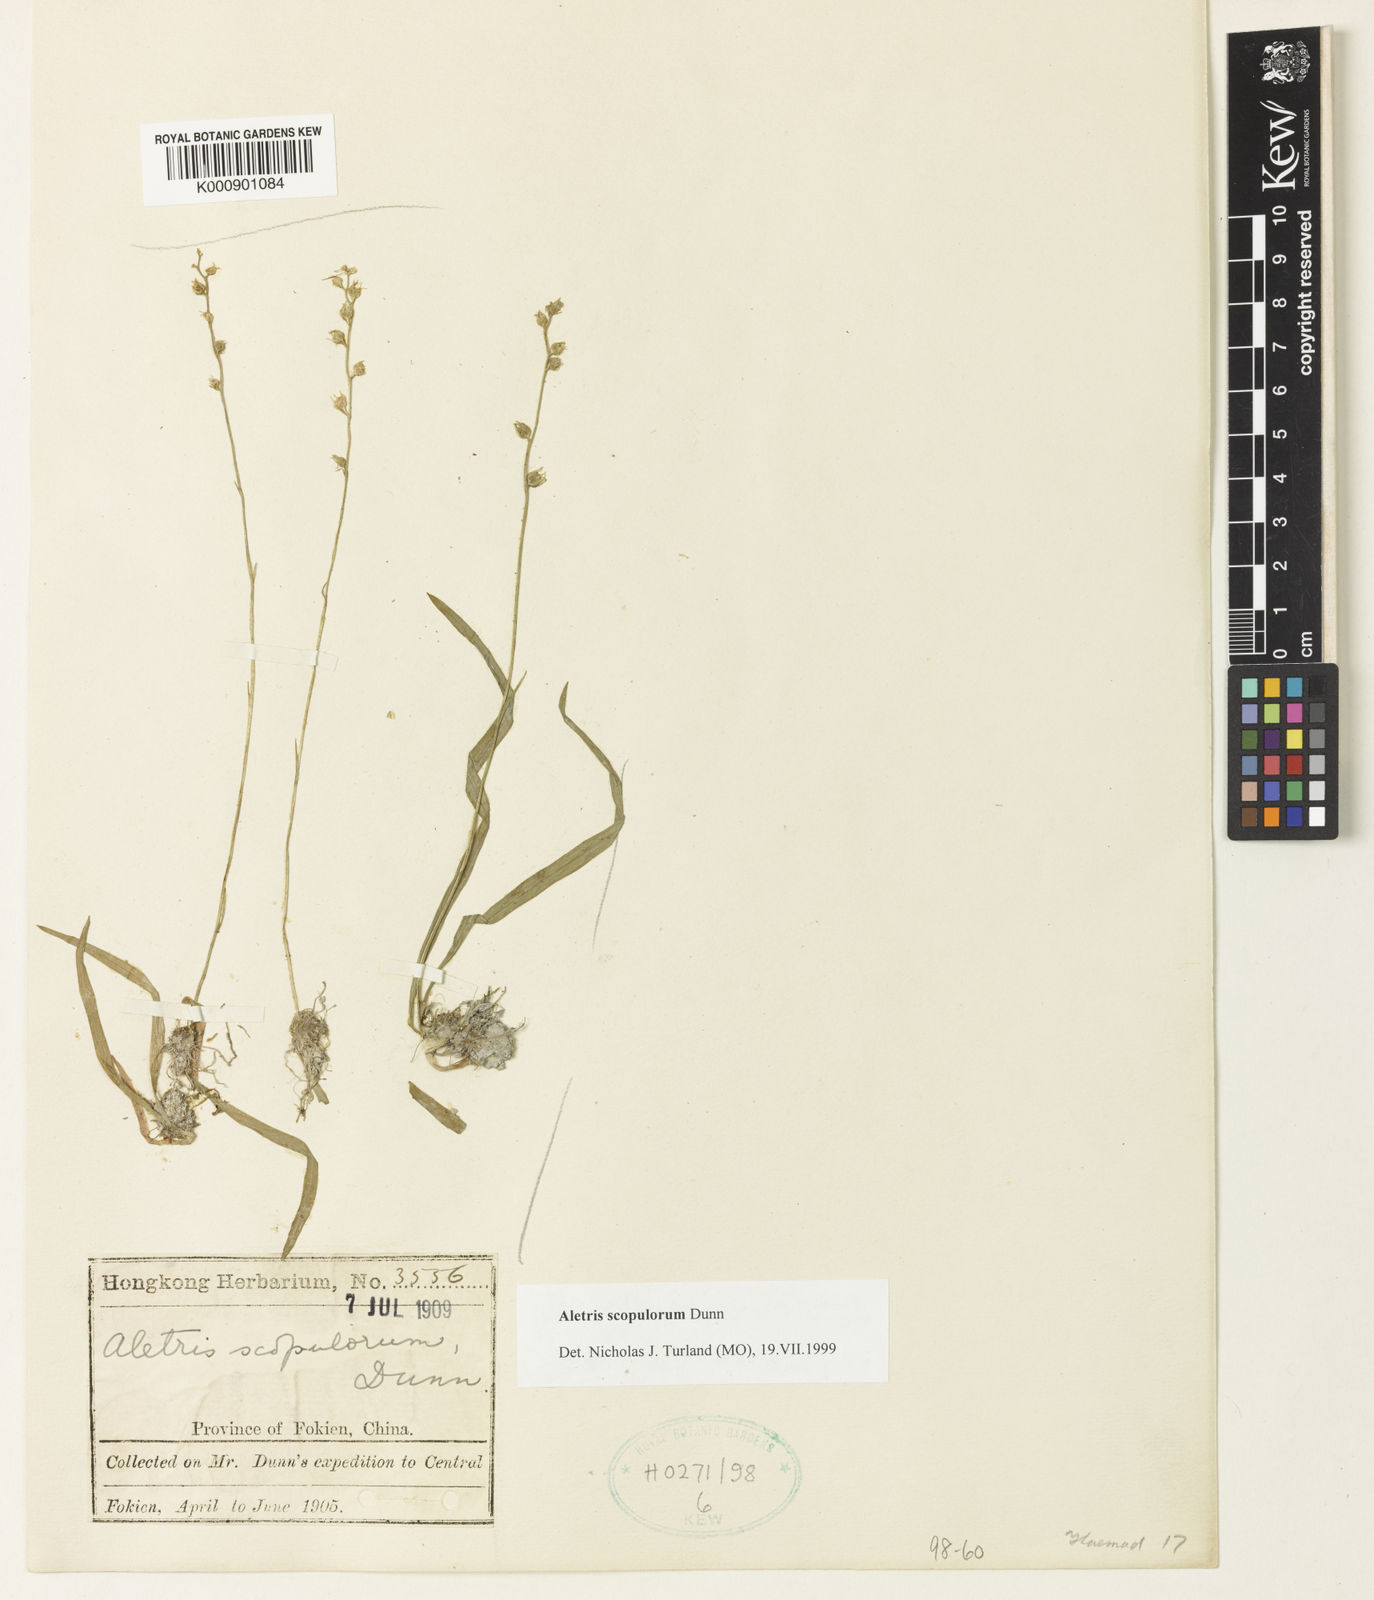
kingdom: Plantae
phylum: Tracheophyta
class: Liliopsida
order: Dioscoreales
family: Nartheciaceae
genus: Aletris
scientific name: Aletris scopulorum
